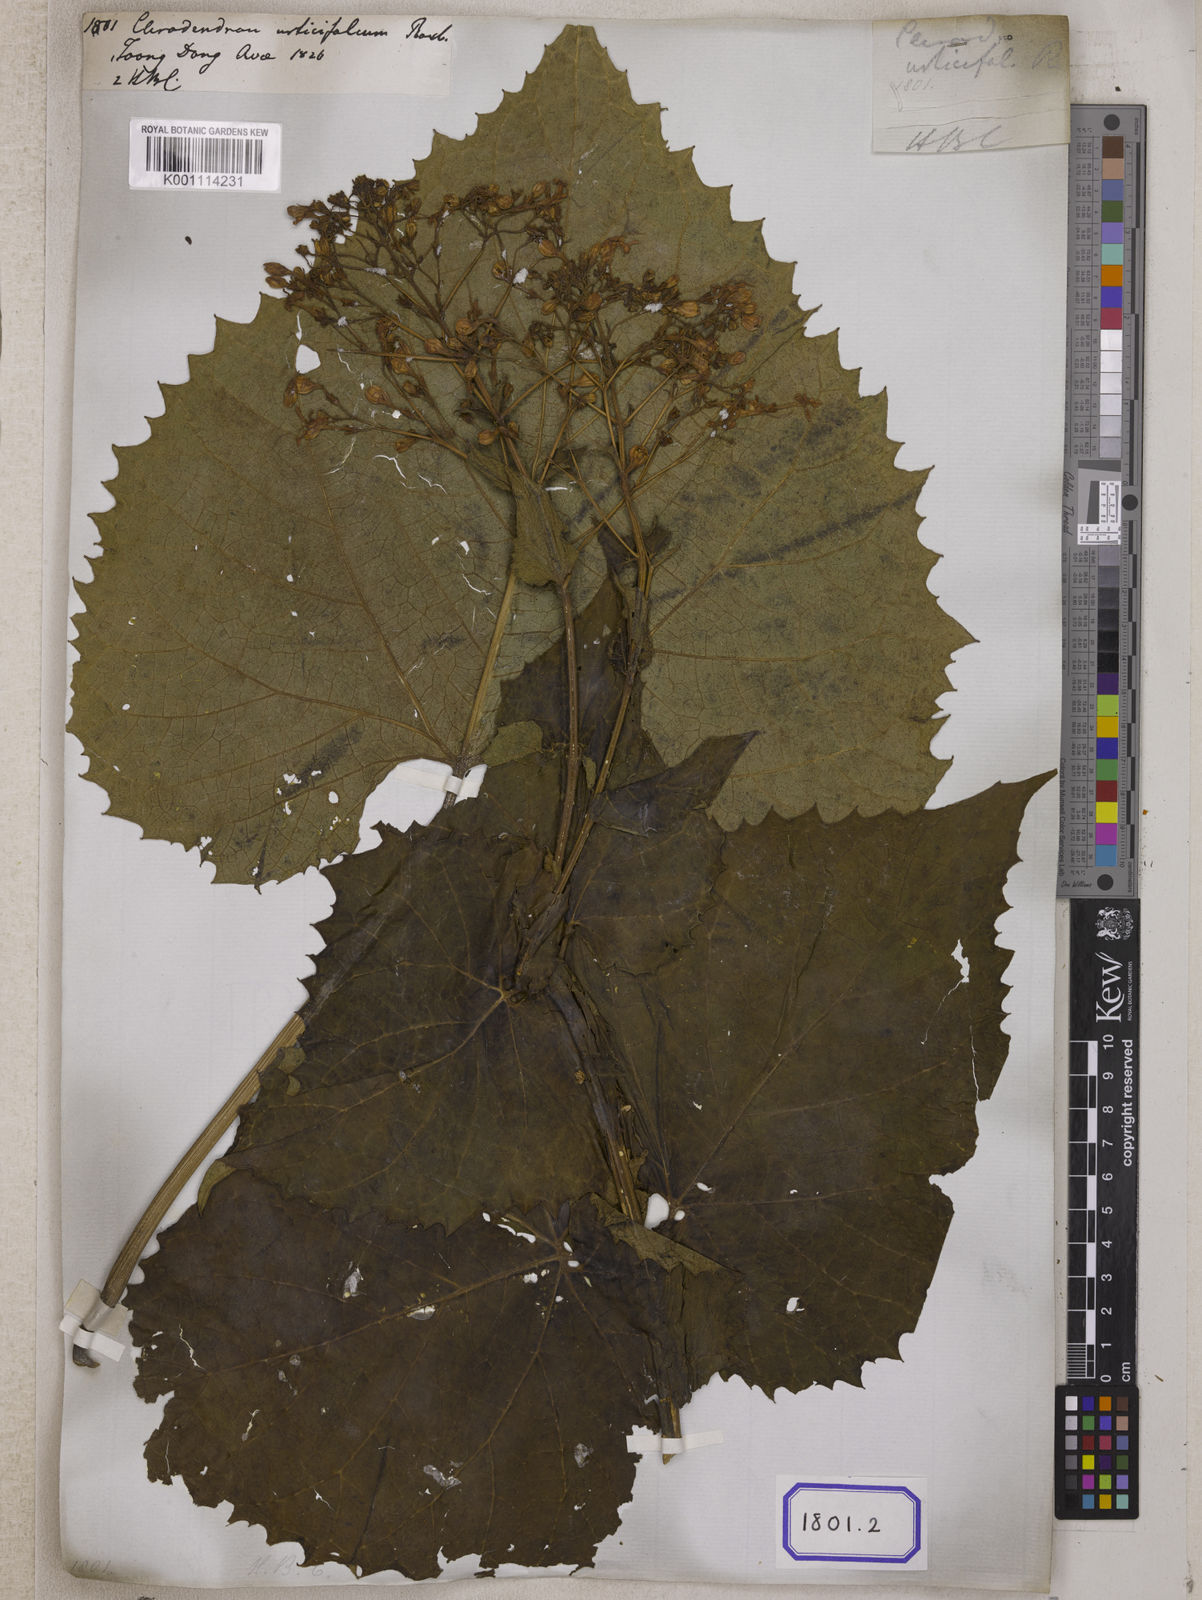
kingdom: Plantae
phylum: Tracheophyta
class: Magnoliopsida
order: Lamiales
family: Lamiaceae
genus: Clerodendrum
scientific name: Clerodendrum
